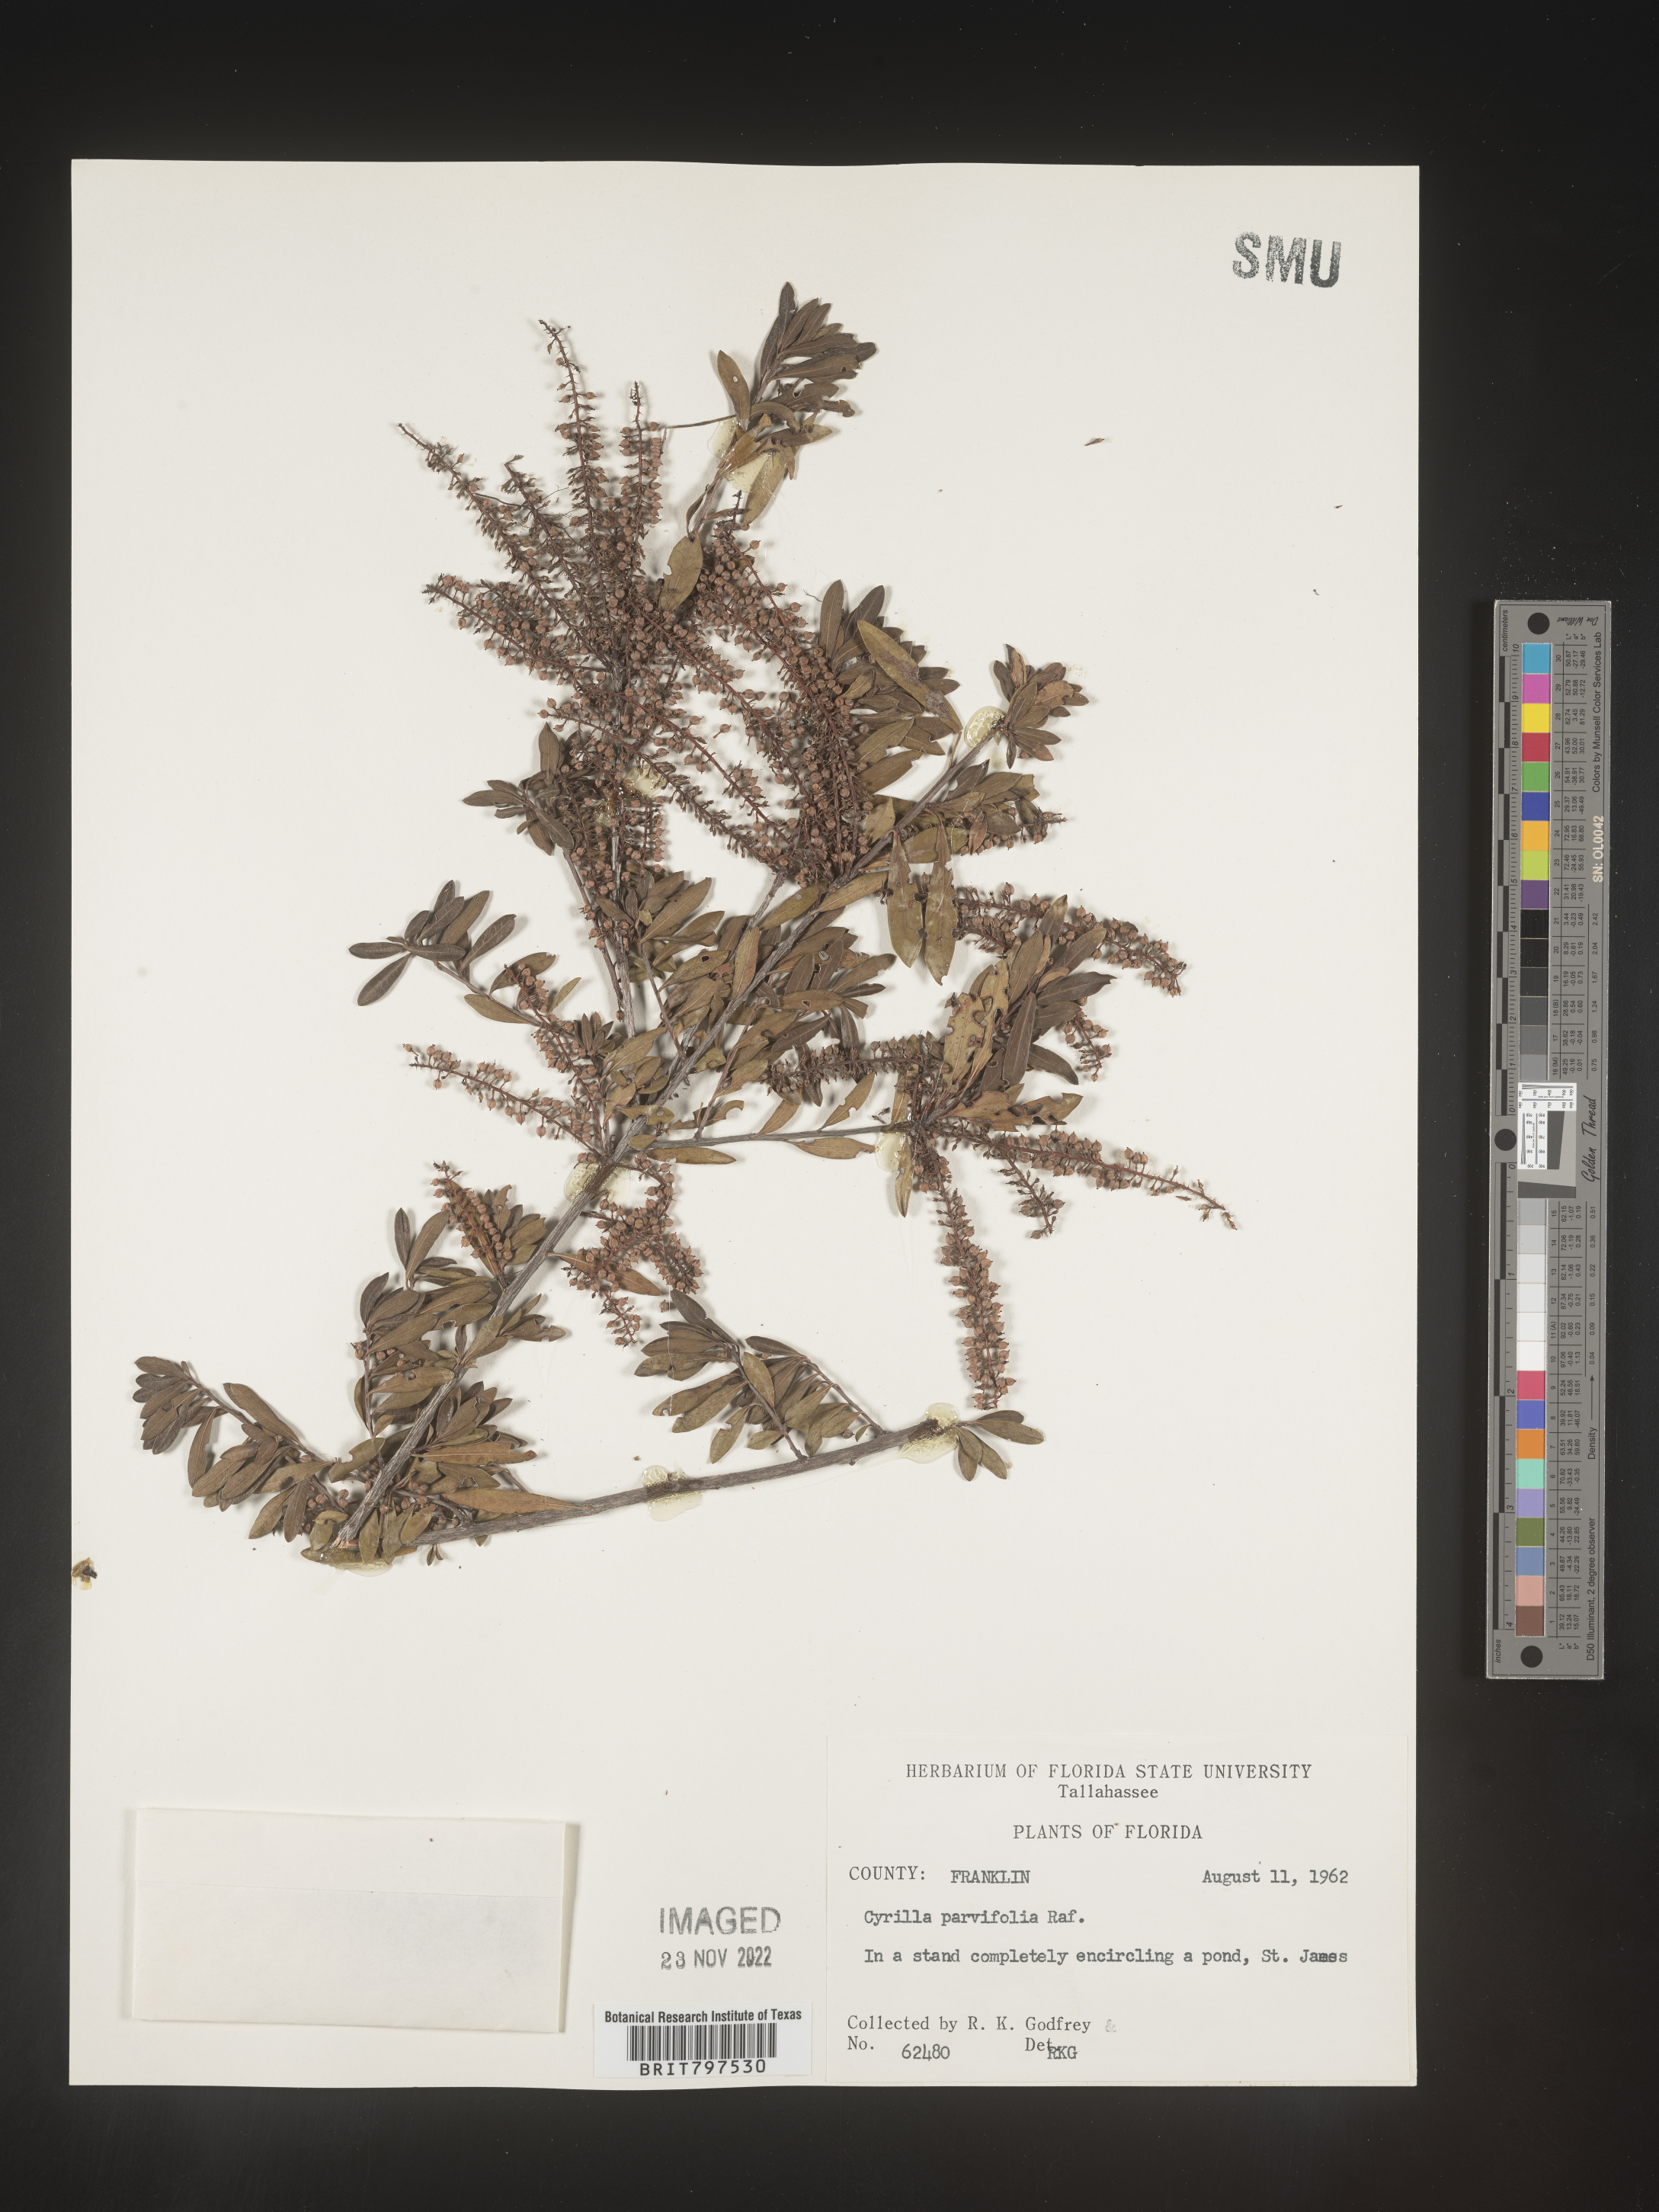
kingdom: Plantae
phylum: Tracheophyta
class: Magnoliopsida
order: Ericales
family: Cyrillaceae
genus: Cyrilla
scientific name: Cyrilla racemiflora
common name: Black titi
